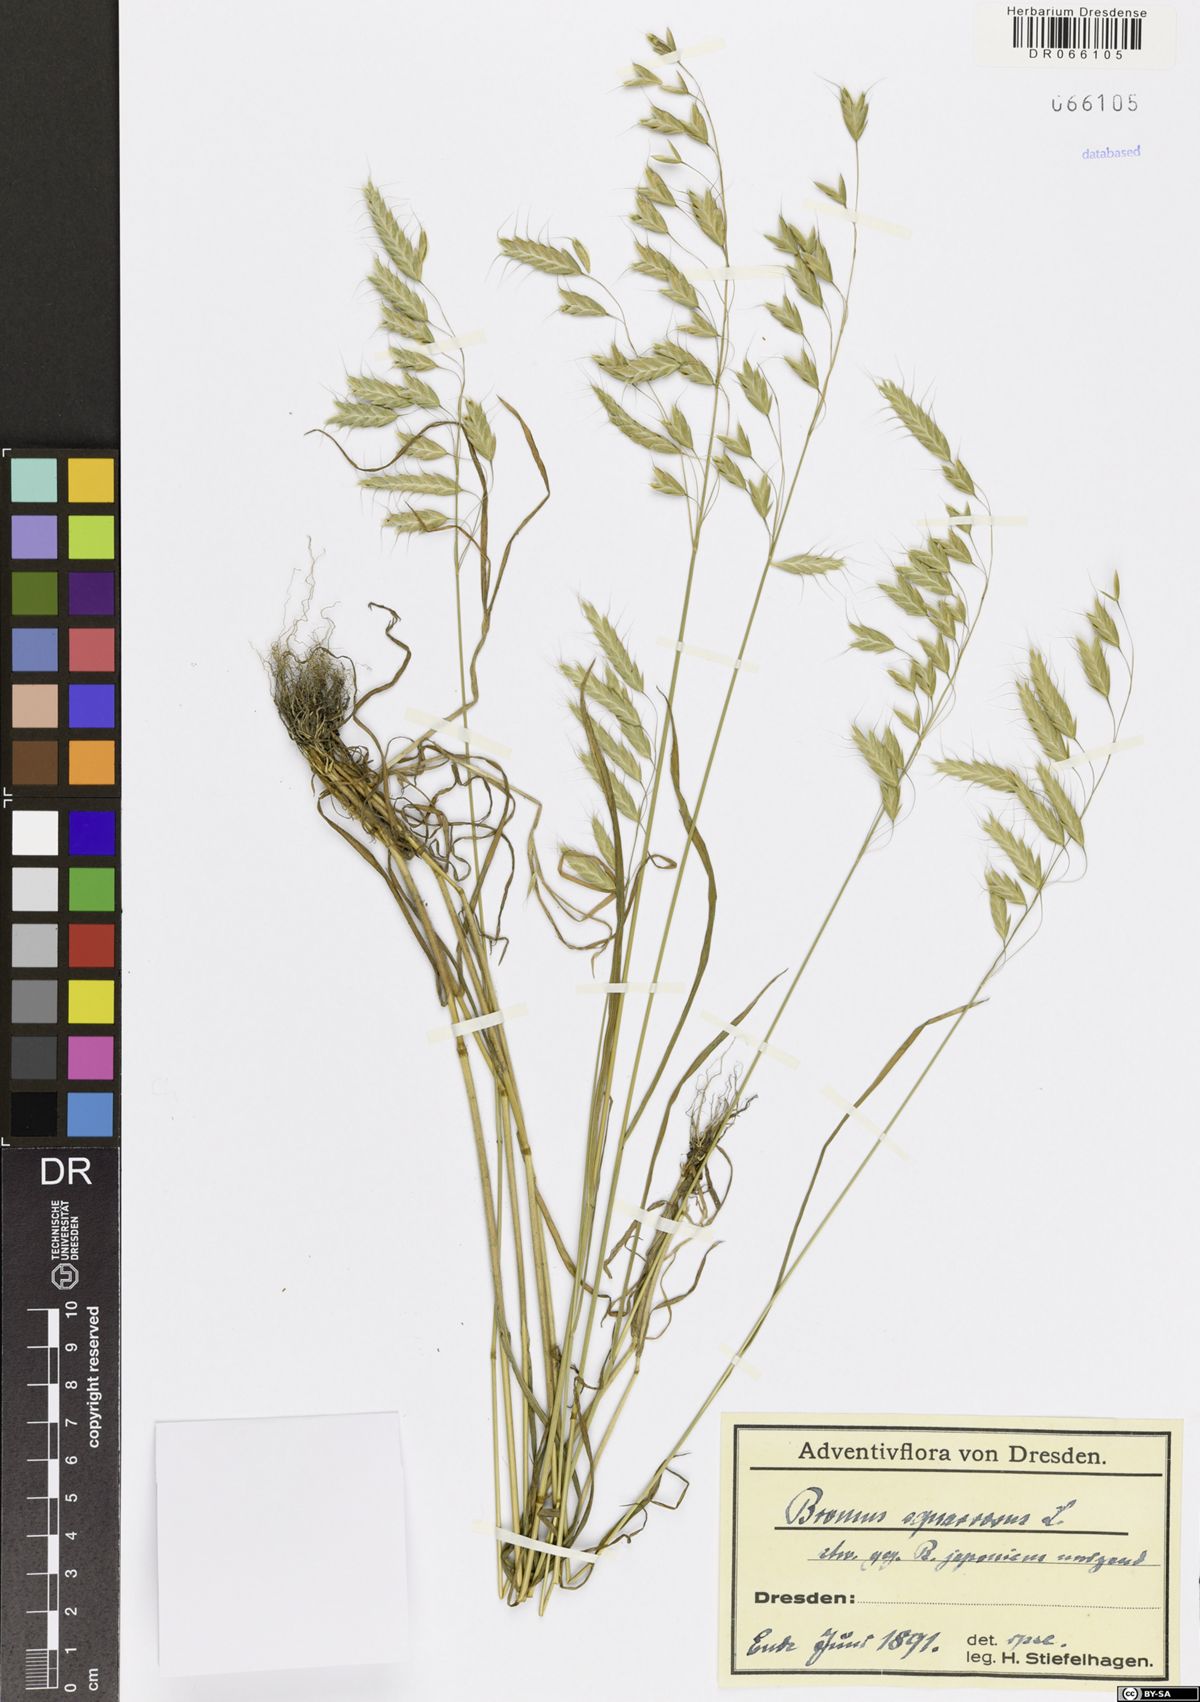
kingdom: Plantae
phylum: Tracheophyta
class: Liliopsida
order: Poales
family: Poaceae
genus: Bromus
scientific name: Bromus squarrosus
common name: Corn brome
